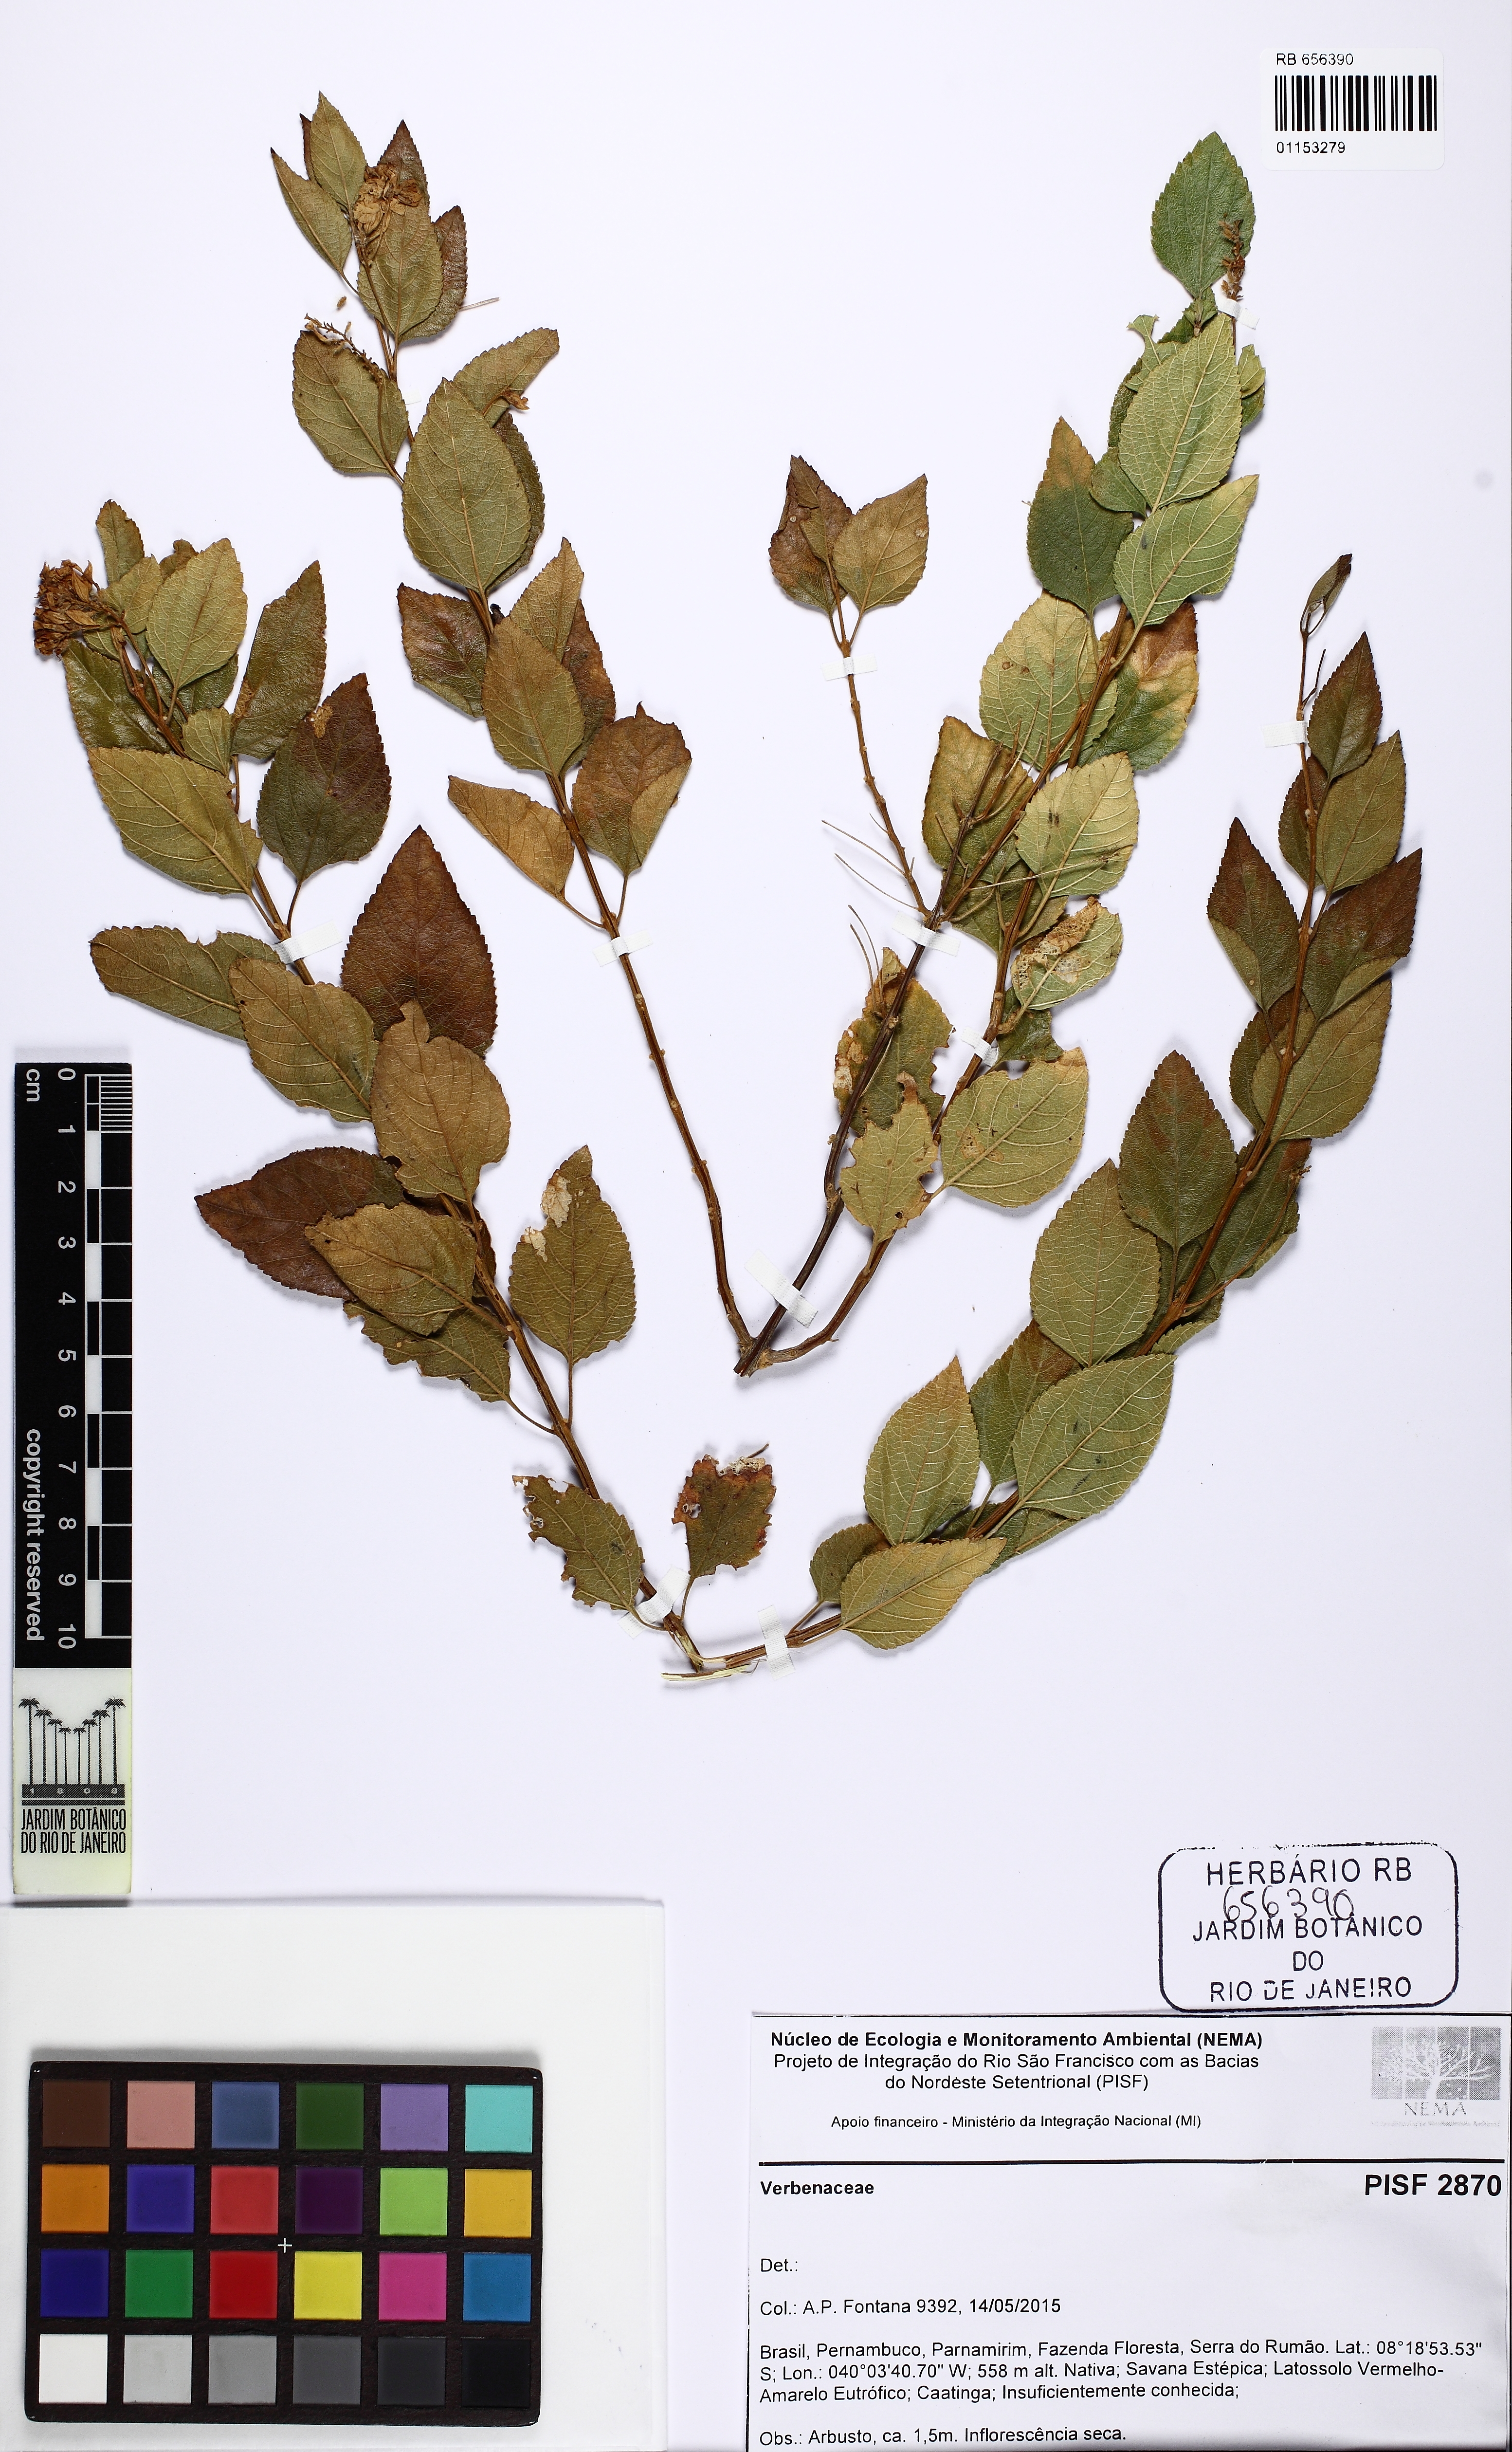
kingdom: Plantae
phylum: Tracheophyta
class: Magnoliopsida
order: Lamiales
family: Verbenaceae
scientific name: Verbenaceae
